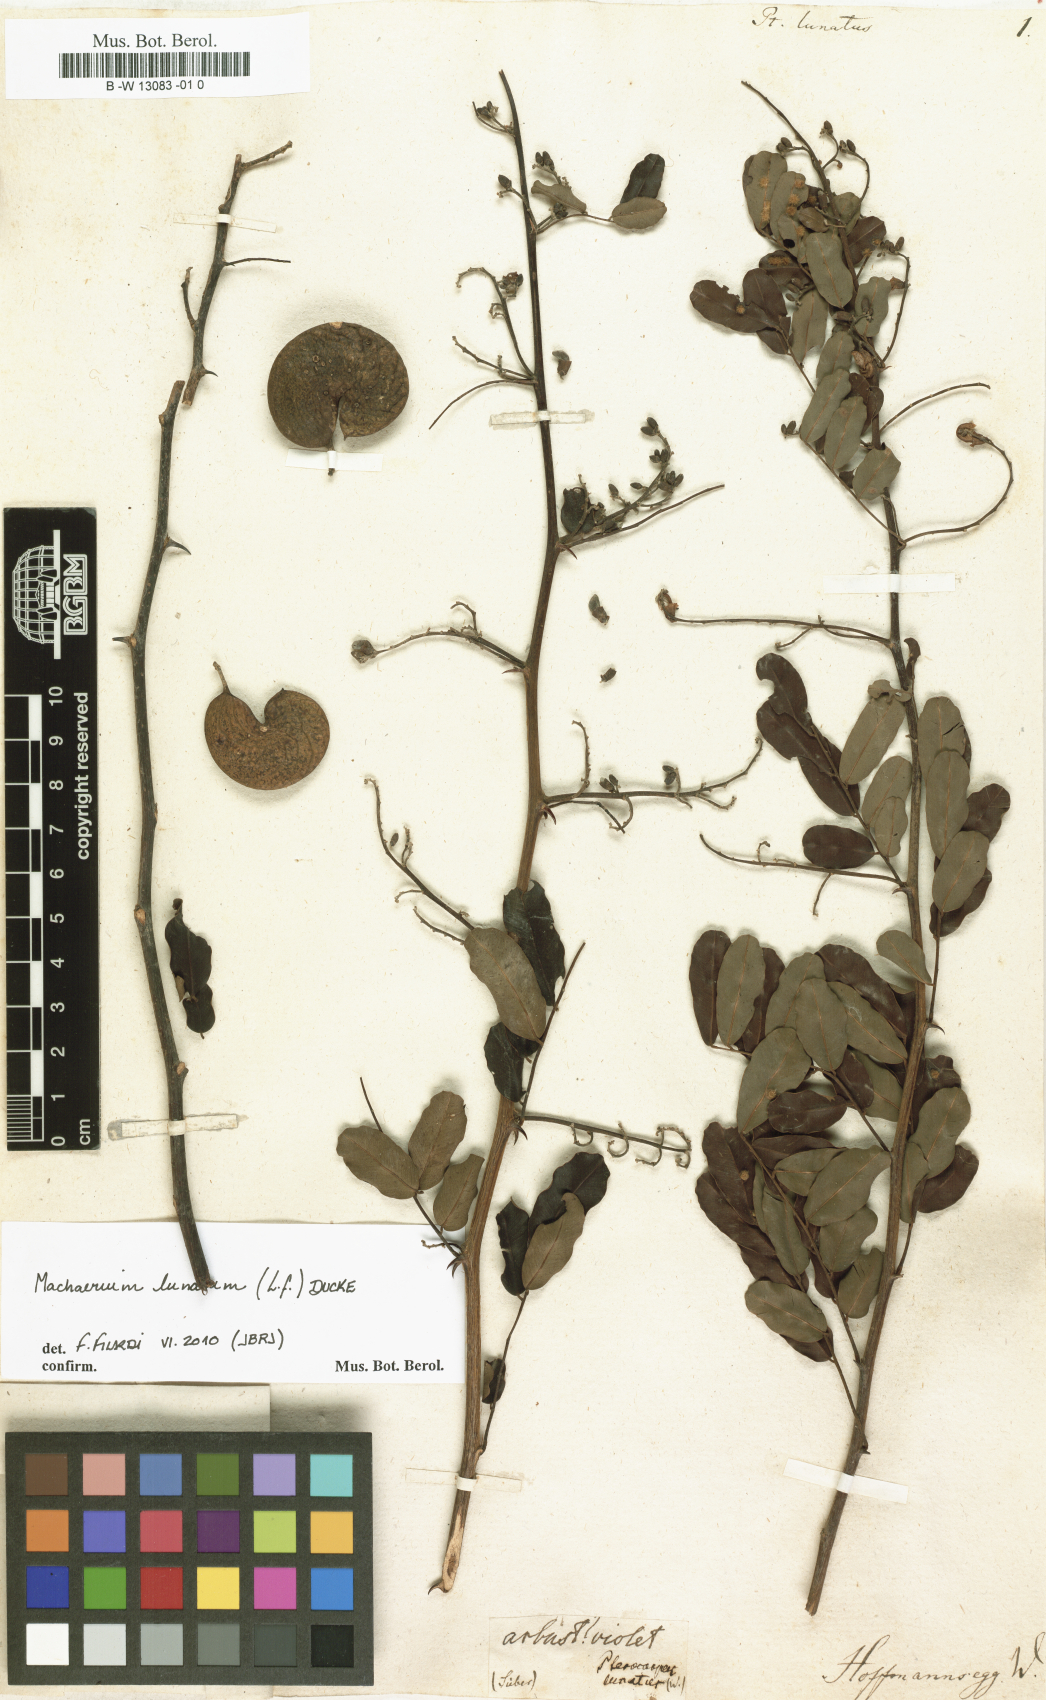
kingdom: Plantae
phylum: Tracheophyta
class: Magnoliopsida
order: Fabales
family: Fabaceae
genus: Machaerium
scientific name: Machaerium lunatum
